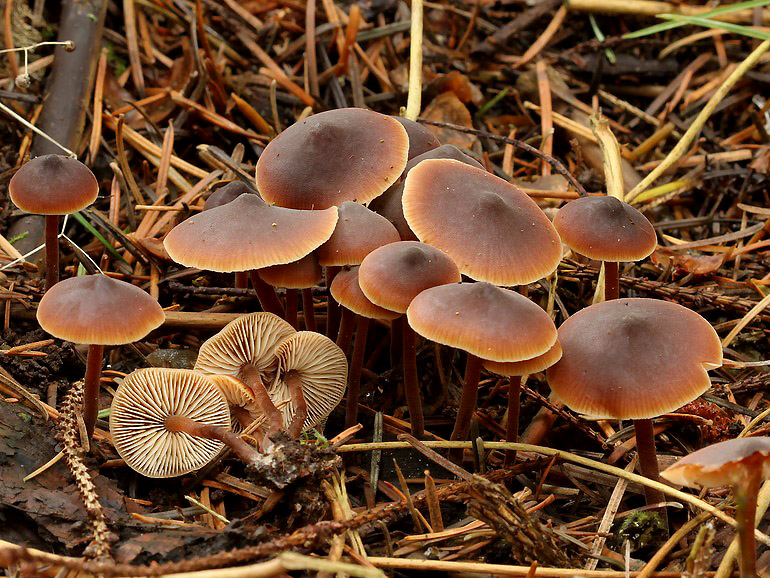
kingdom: Fungi
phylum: Basidiomycota
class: Agaricomycetes
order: Agaricales
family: Macrocystidiaceae
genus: Macrocystidia
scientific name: Macrocystidia cucumis
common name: agurkehat
